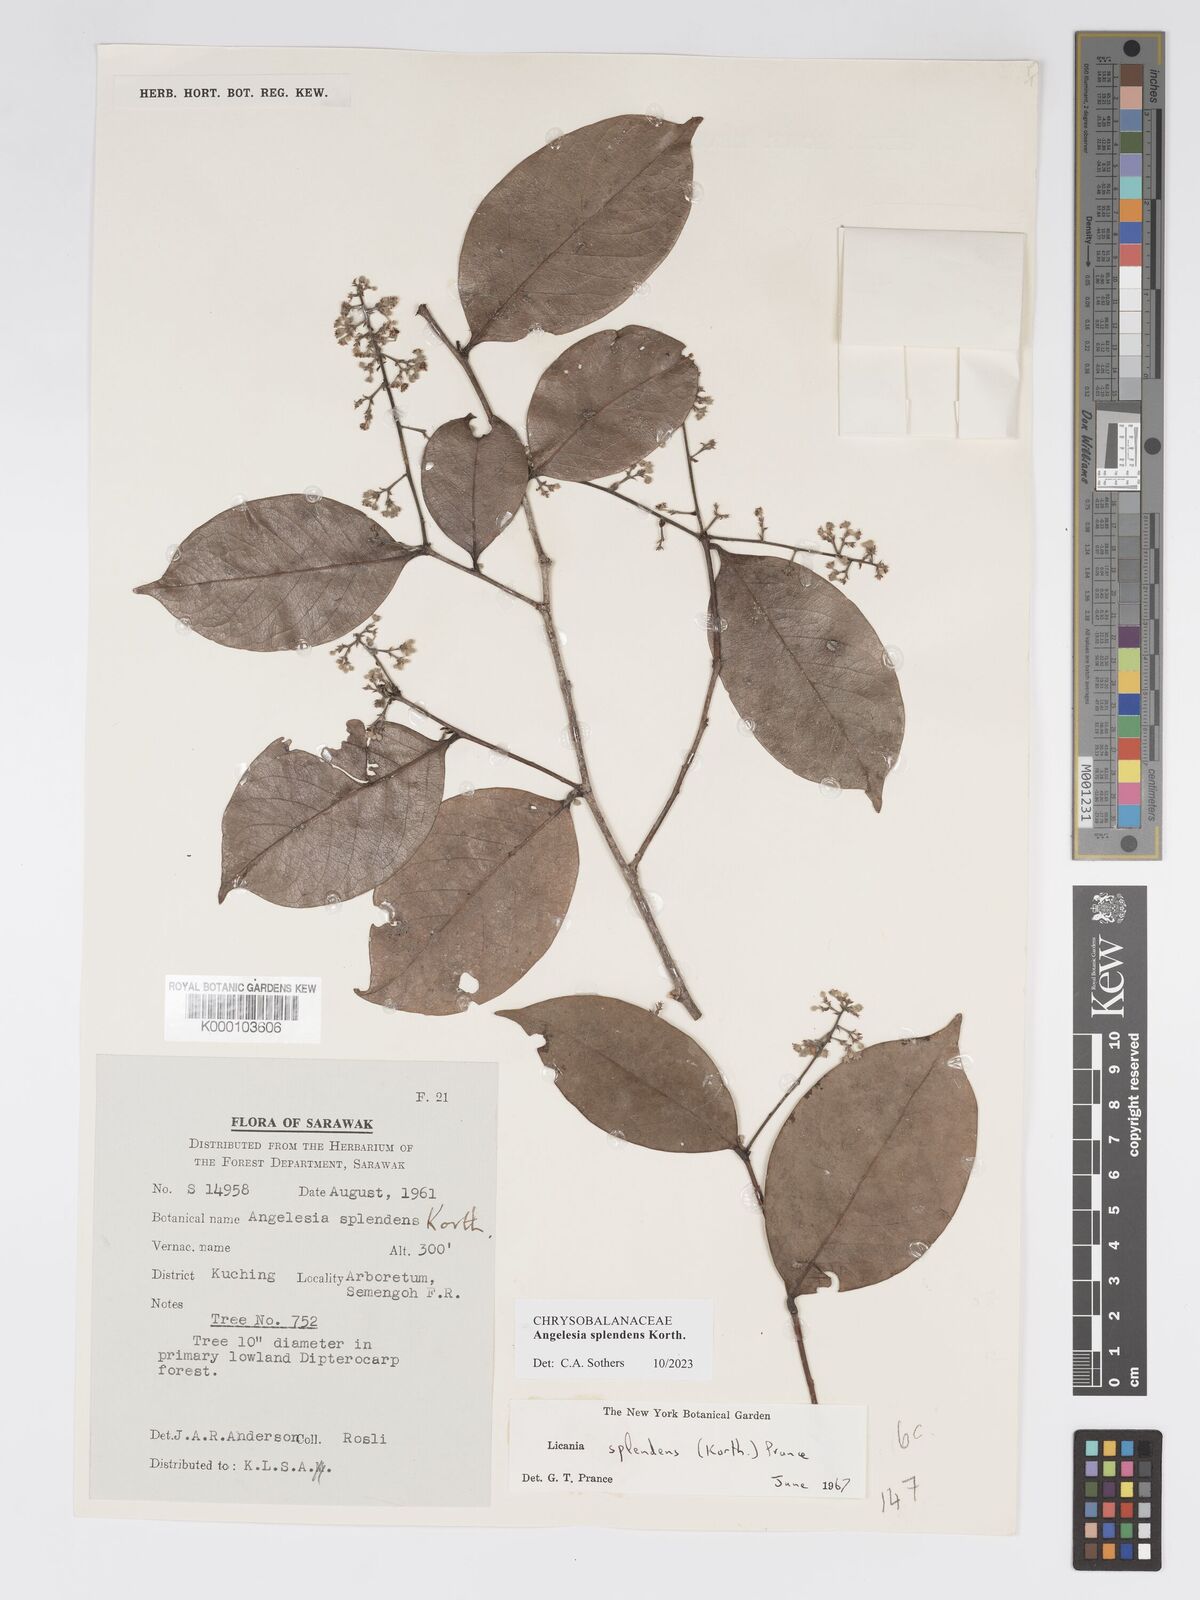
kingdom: Plantae
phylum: Tracheophyta
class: Magnoliopsida
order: Malpighiales
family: Chrysobalanaceae
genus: Angelesia
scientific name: Angelesia splendens
